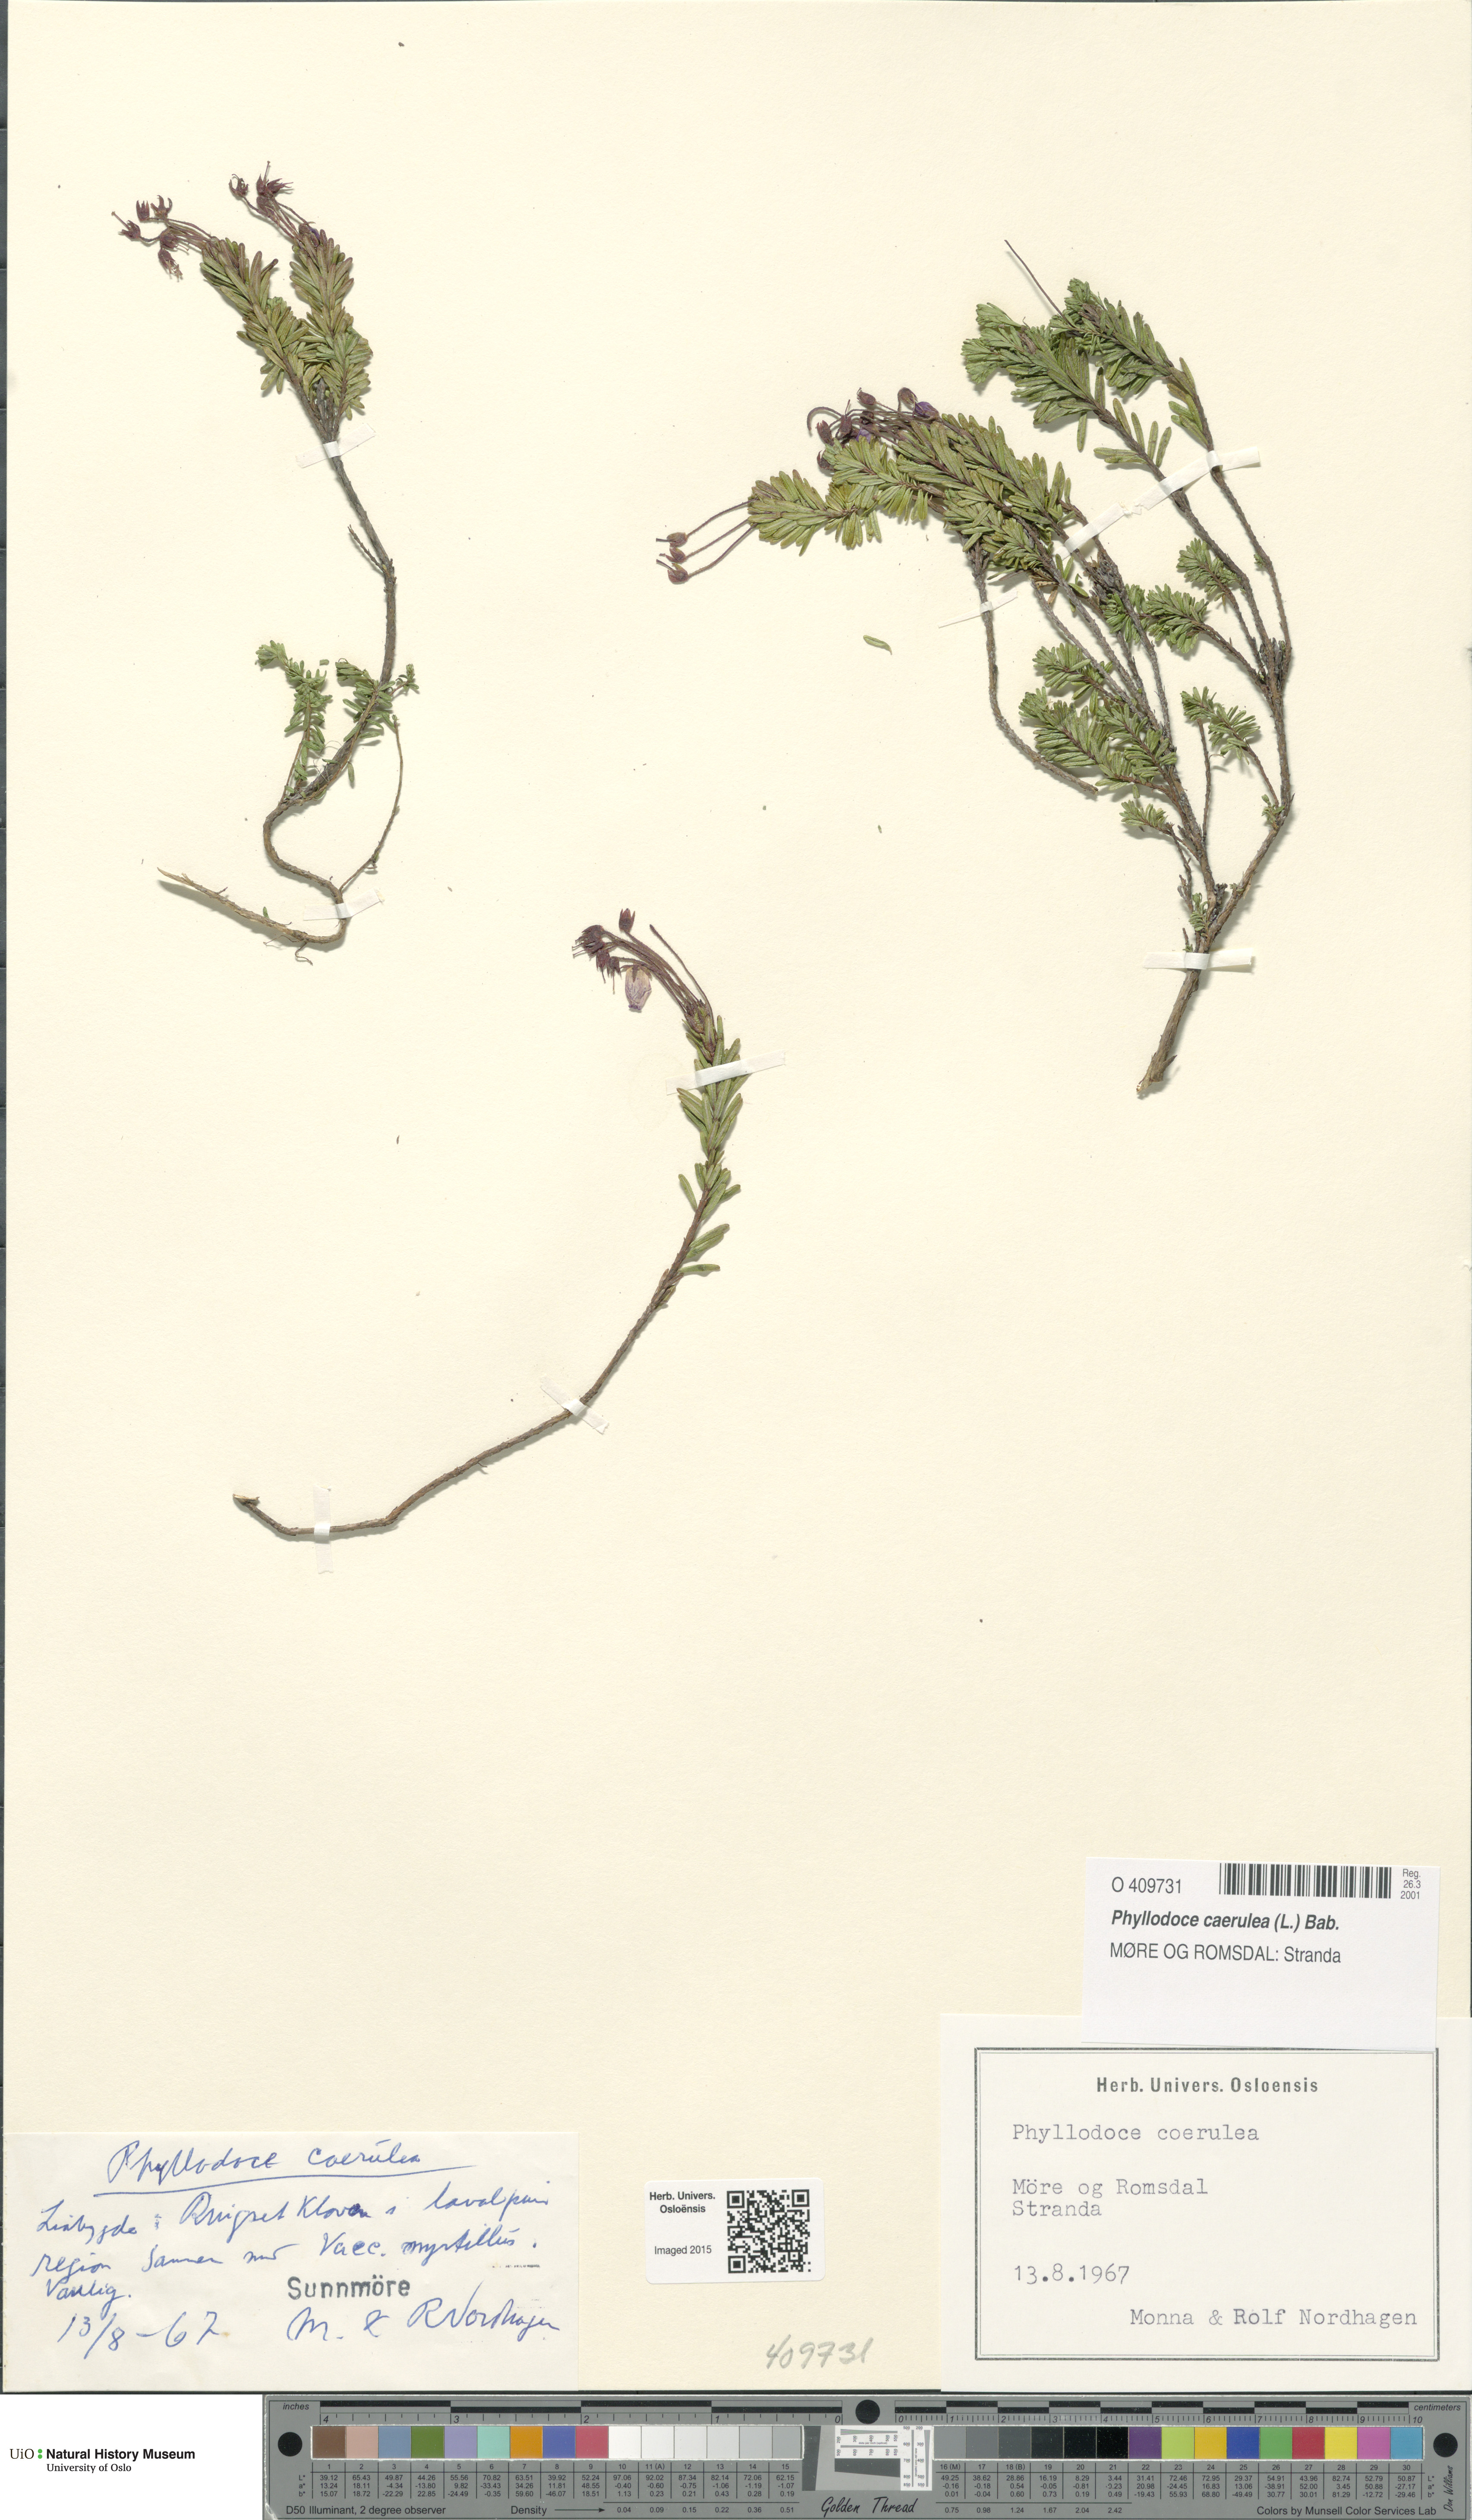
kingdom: Plantae
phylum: Tracheophyta
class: Magnoliopsida
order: Ericales
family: Ericaceae
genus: Phyllodoce
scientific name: Phyllodoce caerulea
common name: Blue heath
